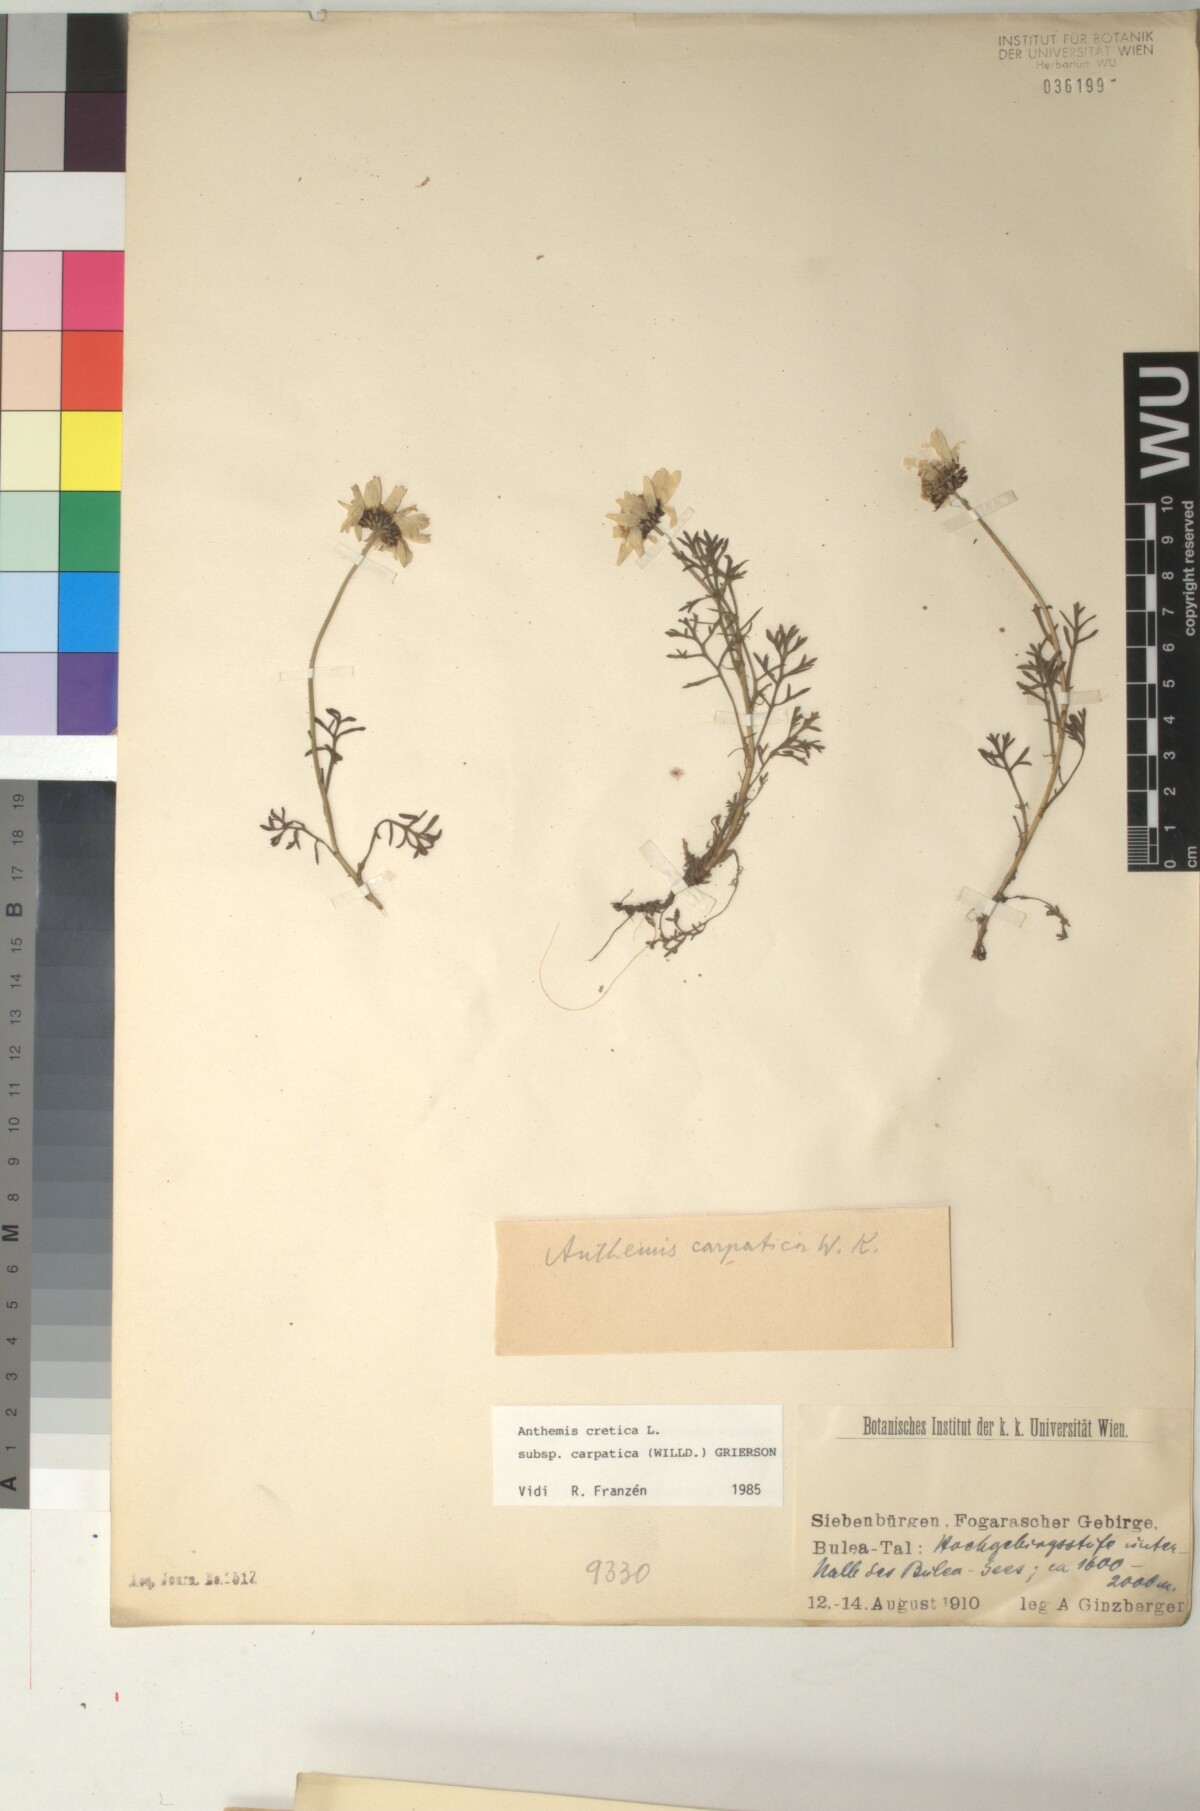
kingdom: Plantae
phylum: Tracheophyta
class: Magnoliopsida
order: Asterales
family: Asteraceae
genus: Anthemis
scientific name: Anthemis cretica
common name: Mountain dog-daisy
